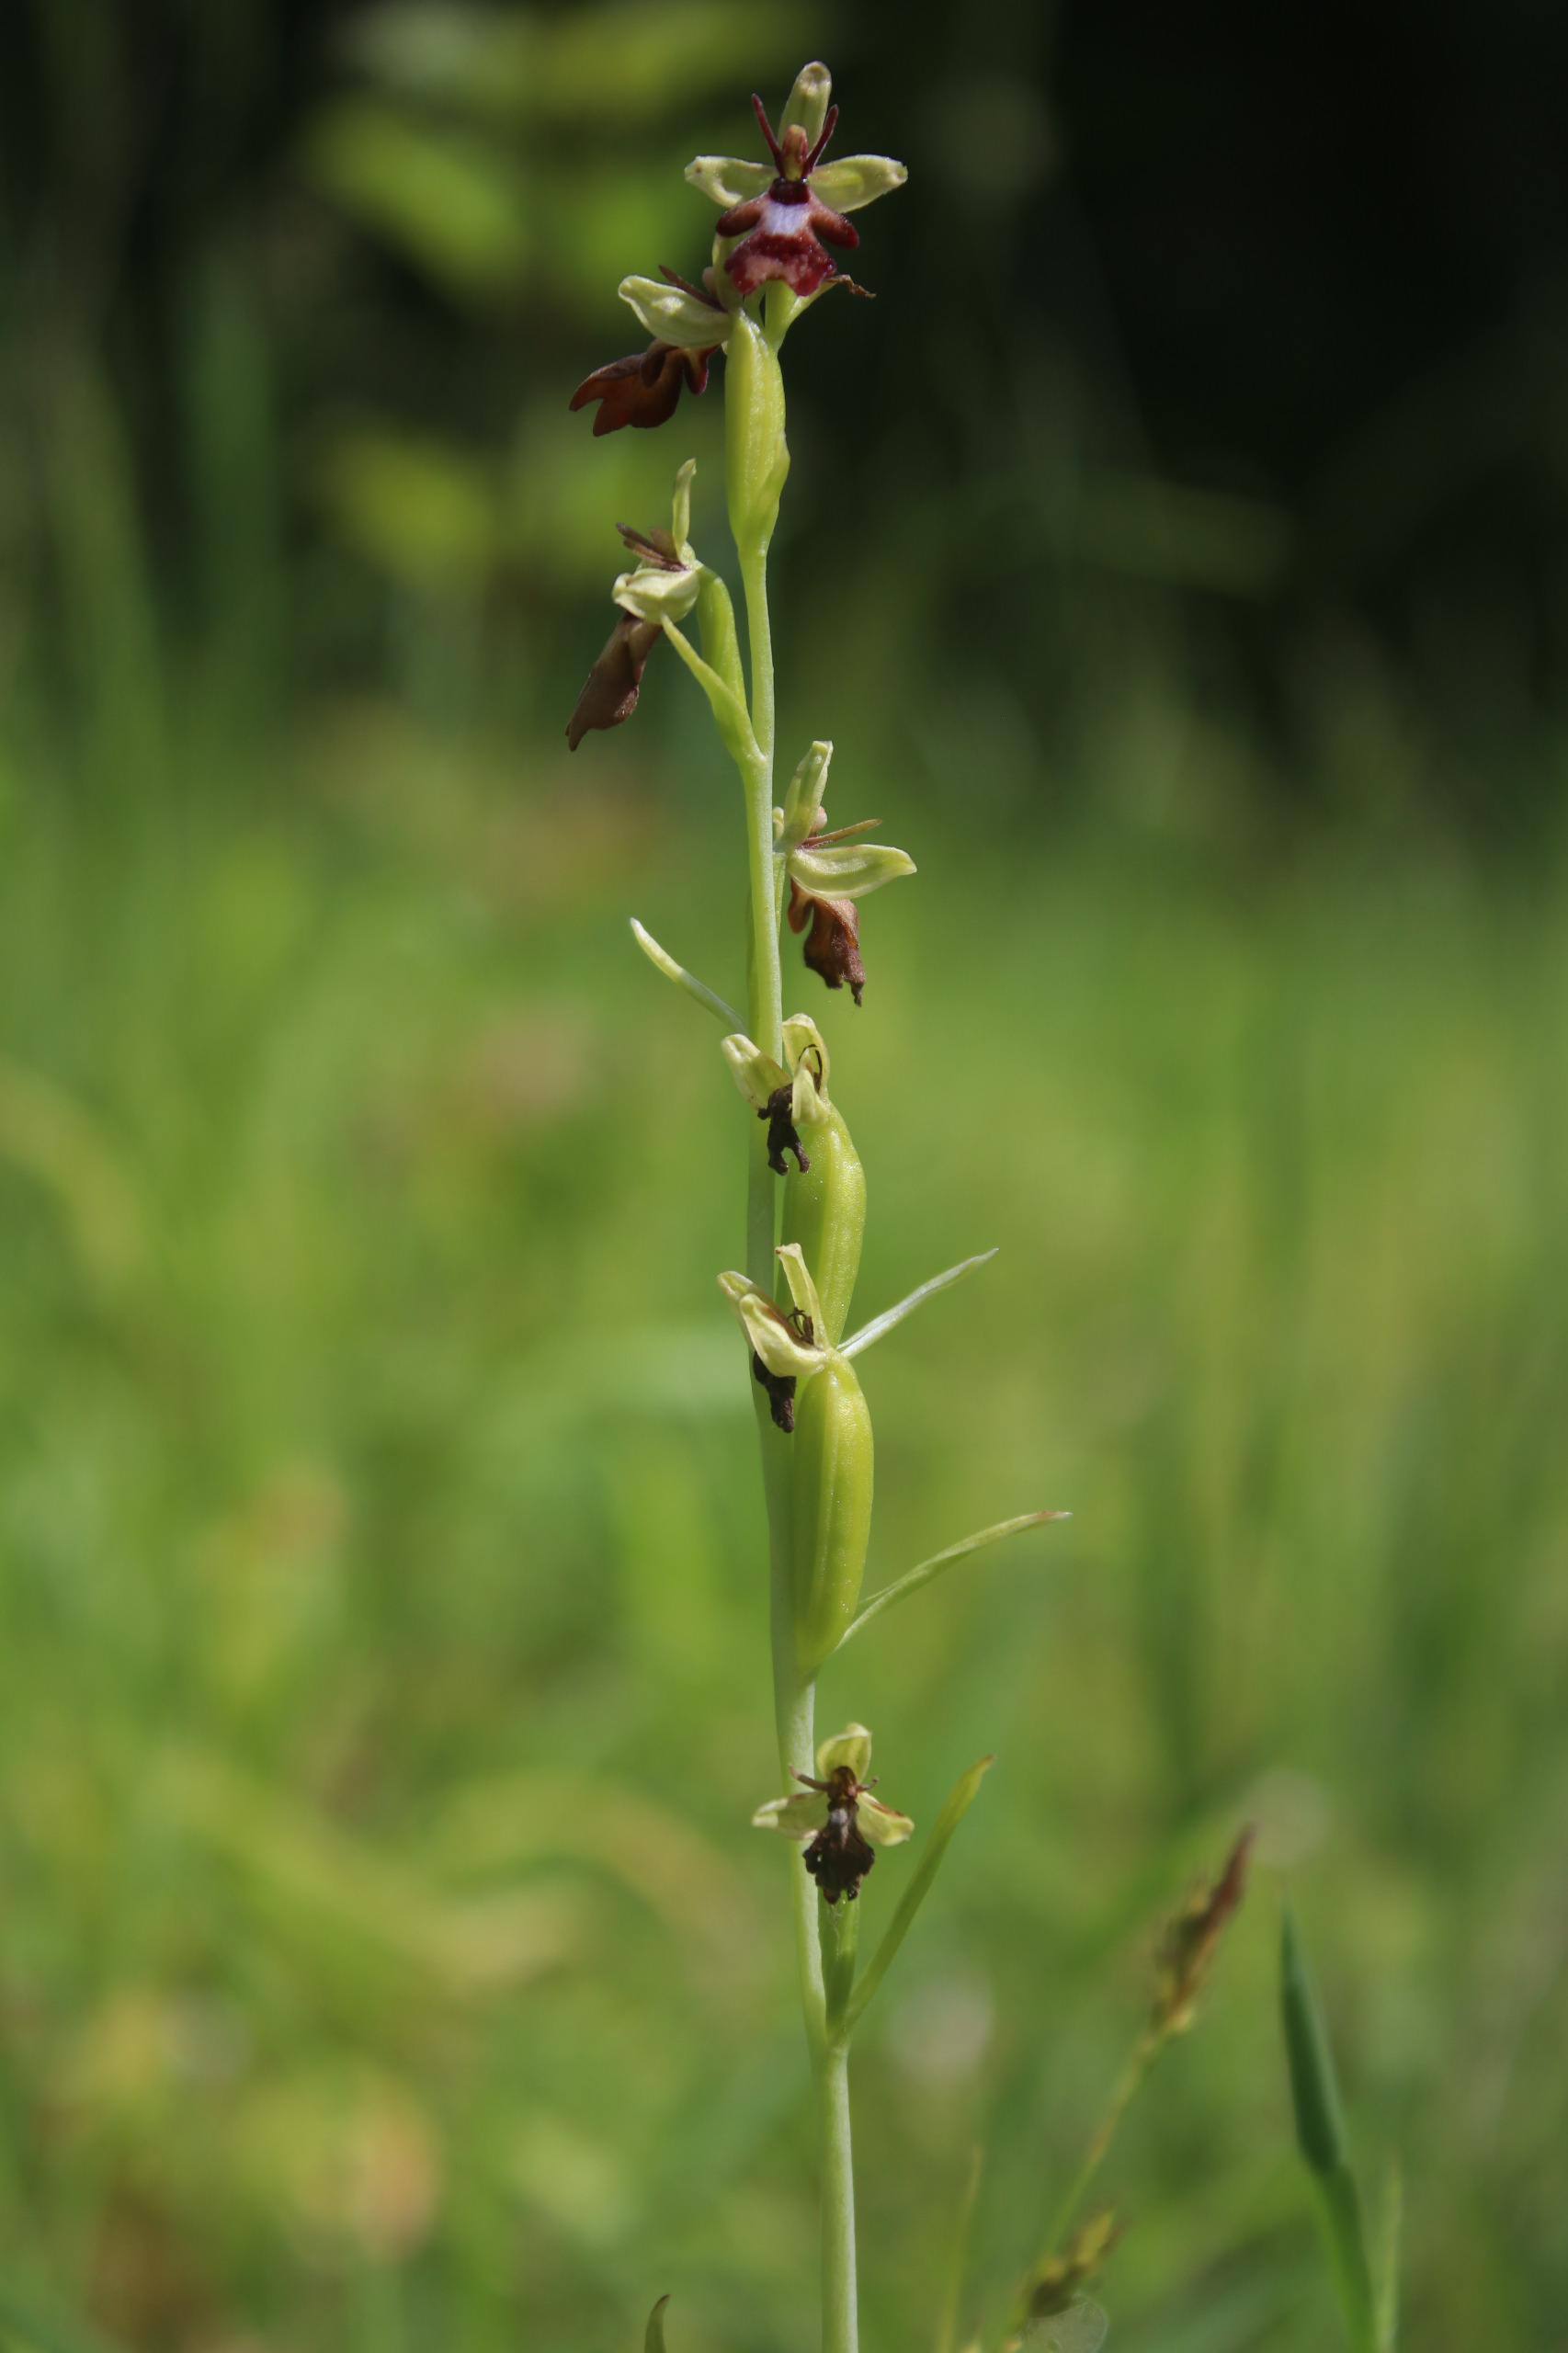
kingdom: Plantae
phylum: Tracheophyta
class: Liliopsida
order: Asparagales
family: Orchidaceae
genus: Ophrys
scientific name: Ophrys insectifera
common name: Flueblomst
